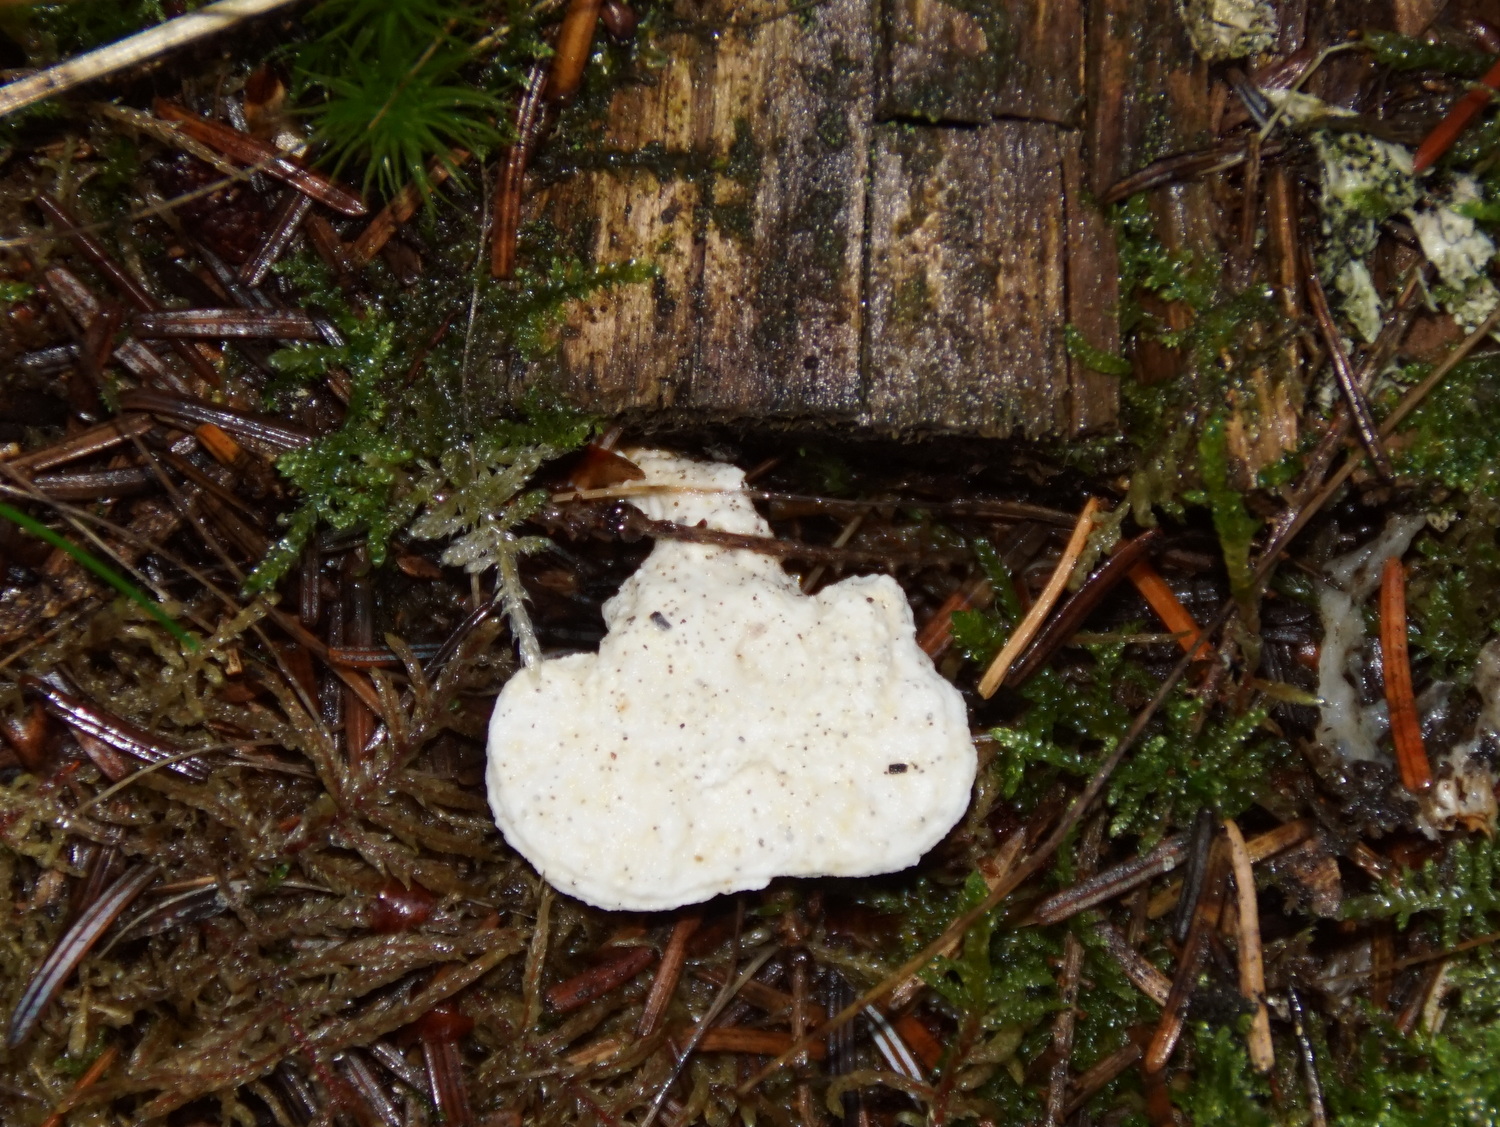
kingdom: Fungi
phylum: Basidiomycota
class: Agaricomycetes
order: Polyporales
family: Incrustoporiaceae
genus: Tyromyces
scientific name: Tyromyces lacteus
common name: mælkehvid kødporesvamp
